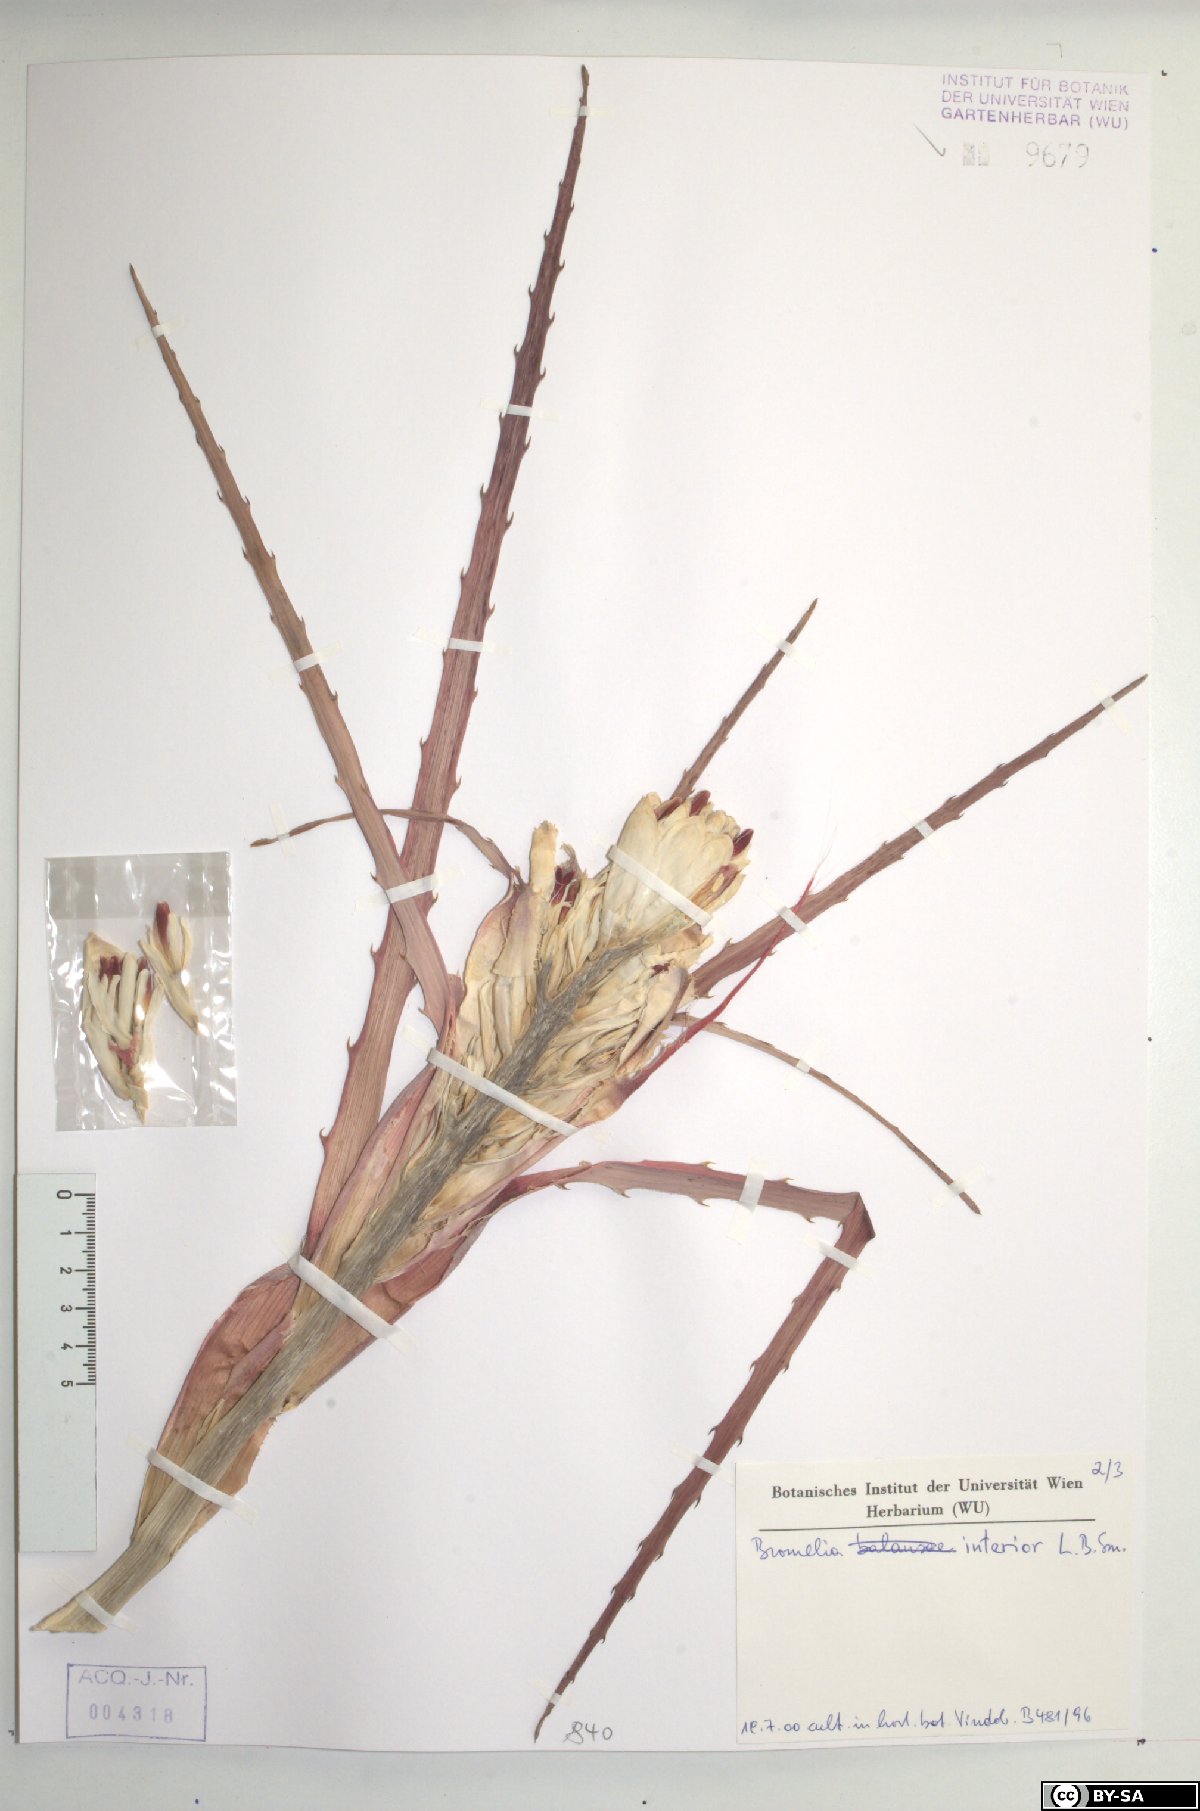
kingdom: Plantae
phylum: Tracheophyta
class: Liliopsida
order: Poales
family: Bromeliaceae
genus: Bromelia
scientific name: Bromelia interior
